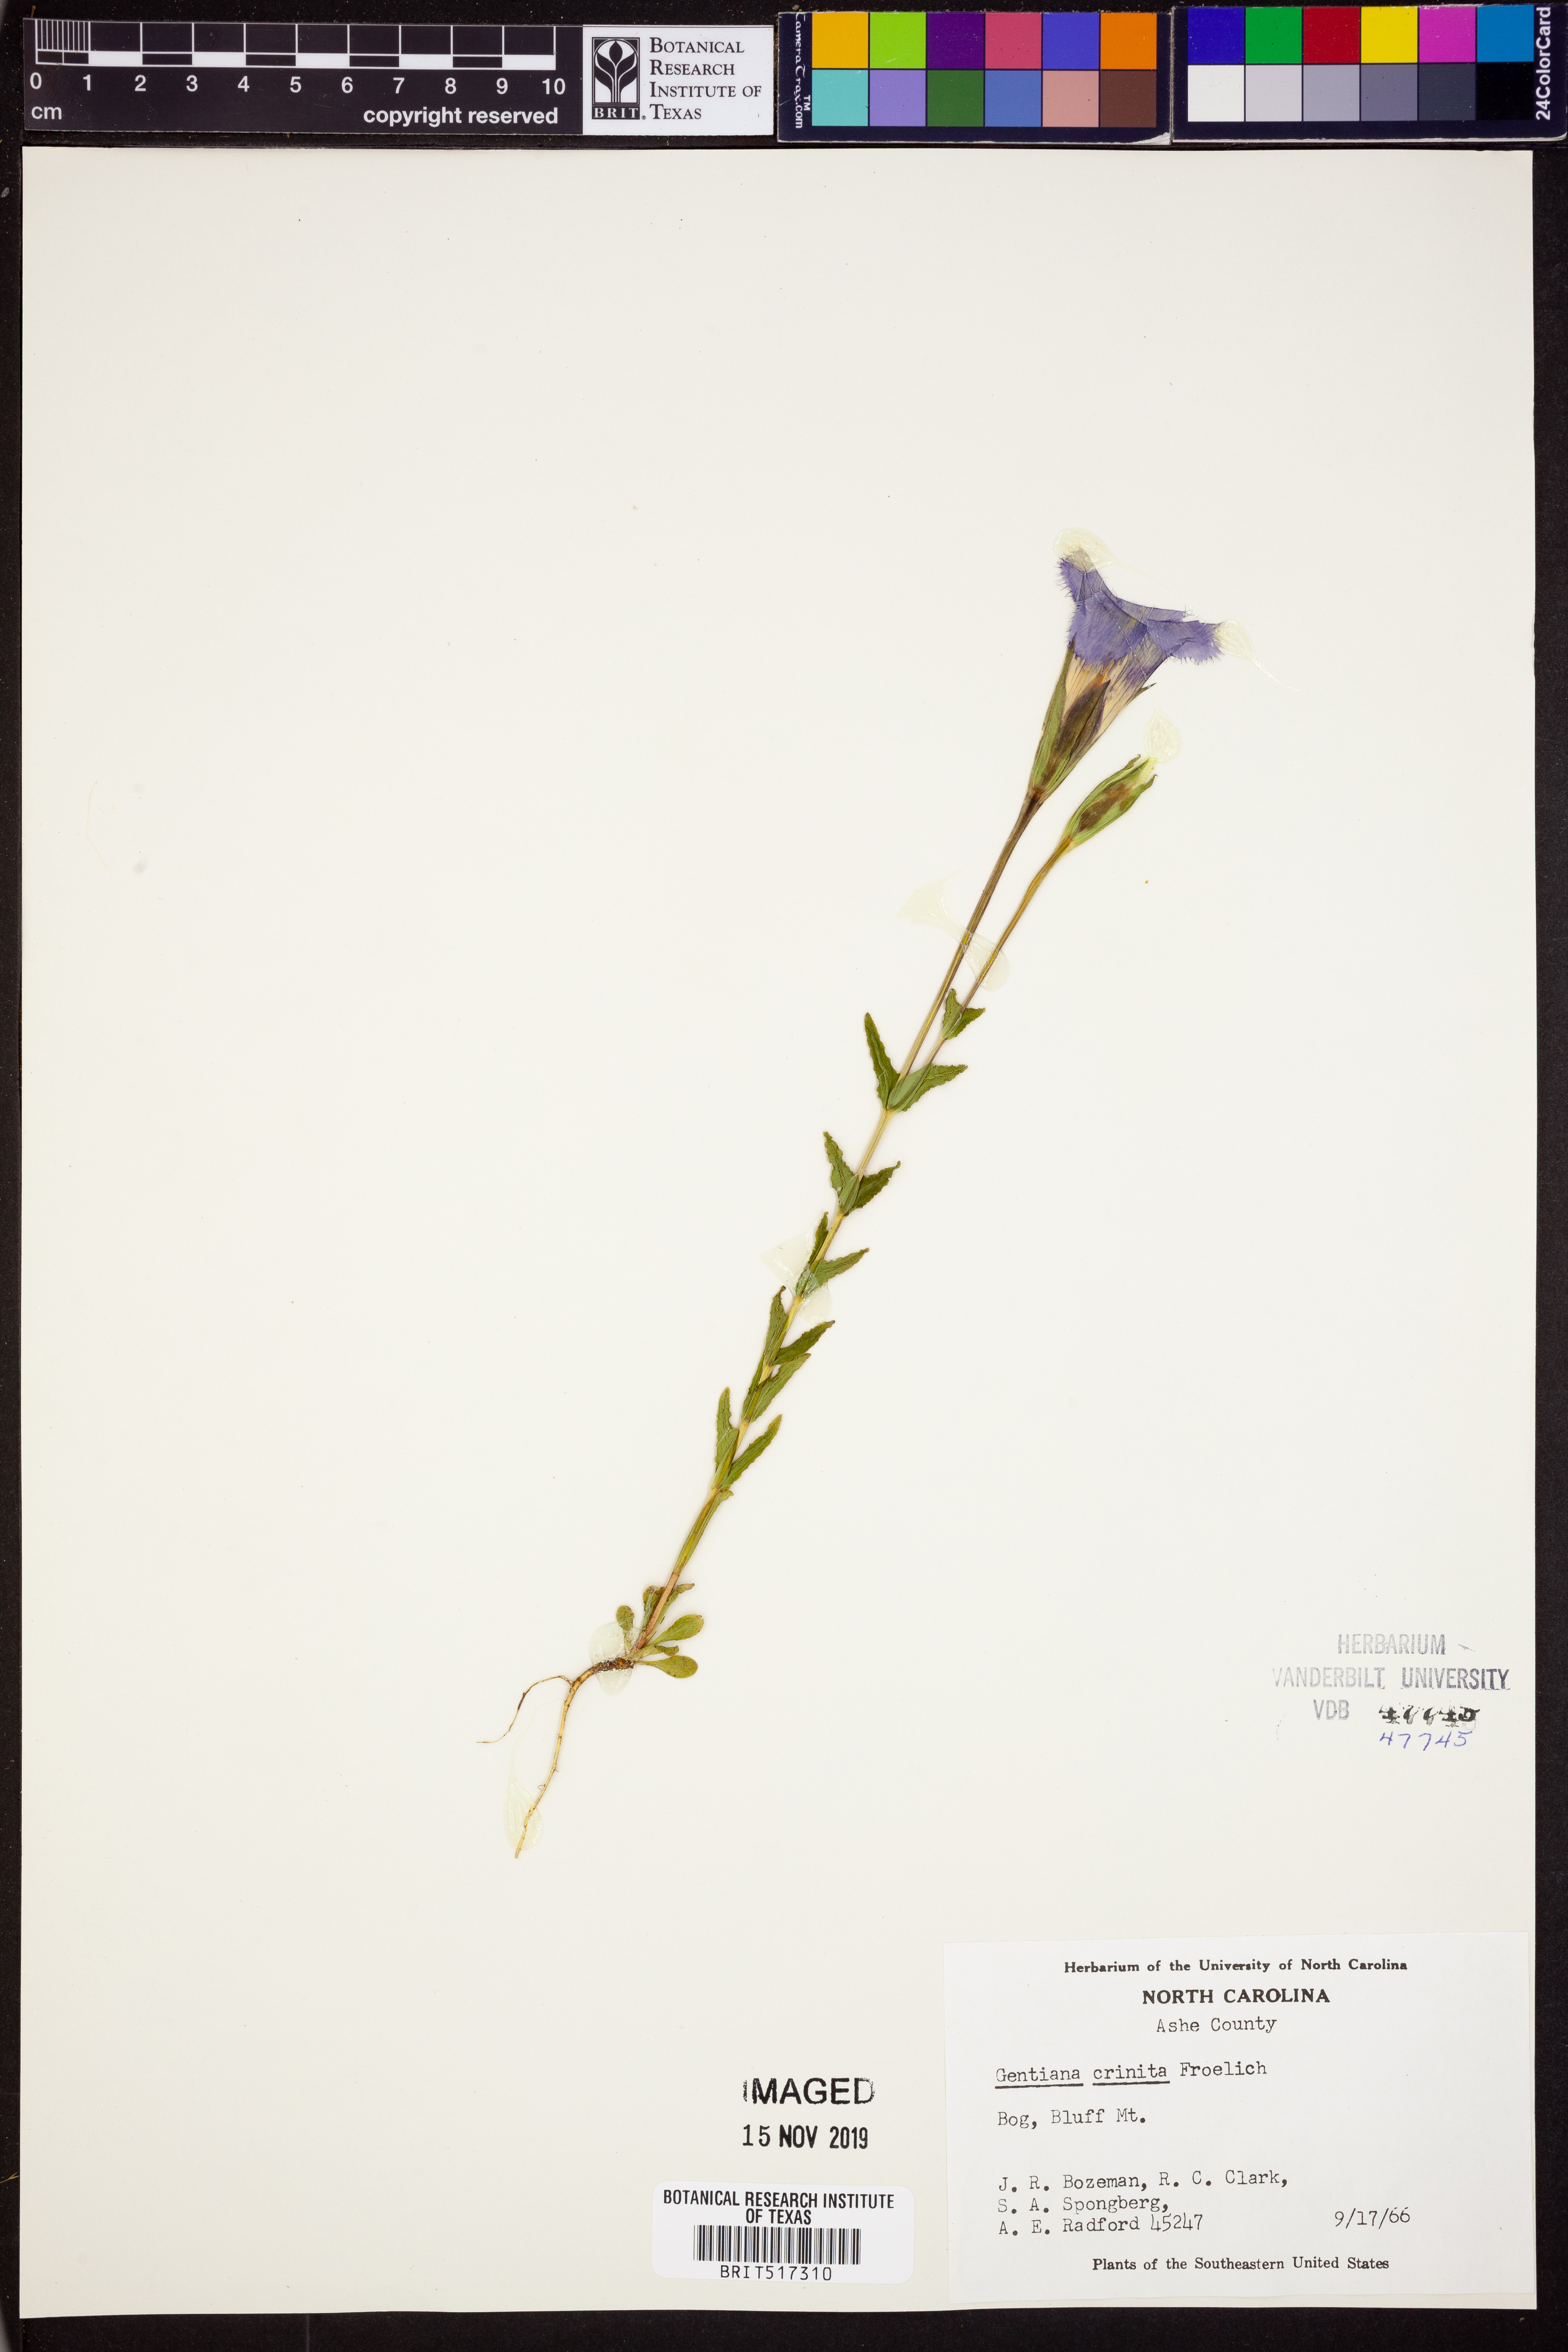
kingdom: Plantae
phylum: Tracheophyta
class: Magnoliopsida
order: Gentianales
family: Gentianaceae
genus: Gentianopsis
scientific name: Gentianopsis crinita
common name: Fringed-gentian
